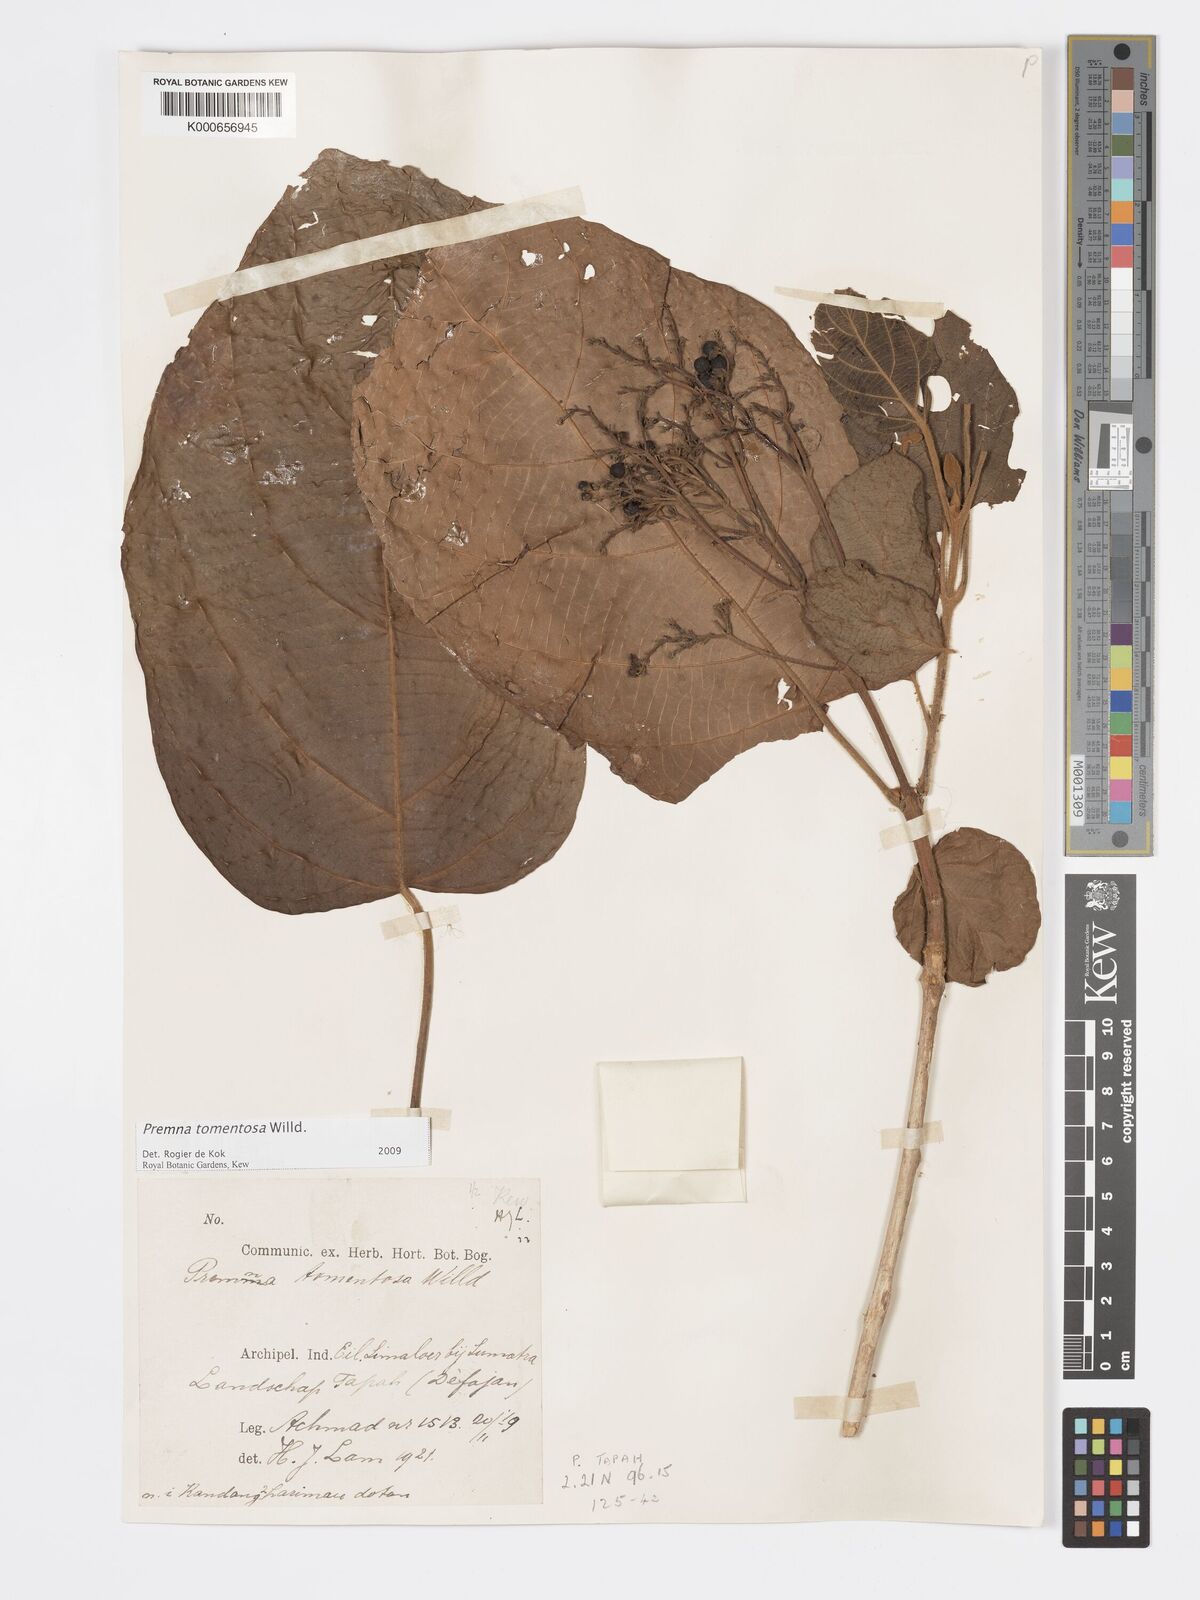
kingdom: Plantae
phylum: Tracheophyta
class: Magnoliopsida
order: Lamiales
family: Lamiaceae
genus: Premna
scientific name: Premna tomentosa
